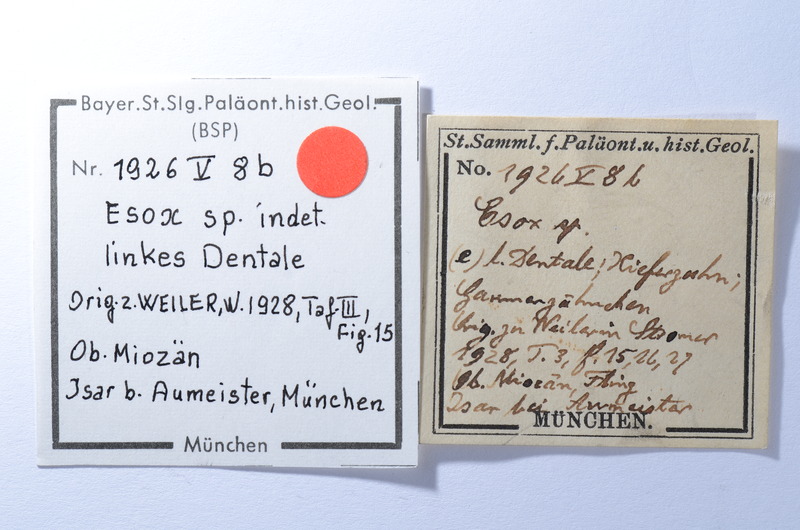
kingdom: Animalia
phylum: Chordata
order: Esociformes
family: Esocidae
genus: Esox
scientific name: Esox
